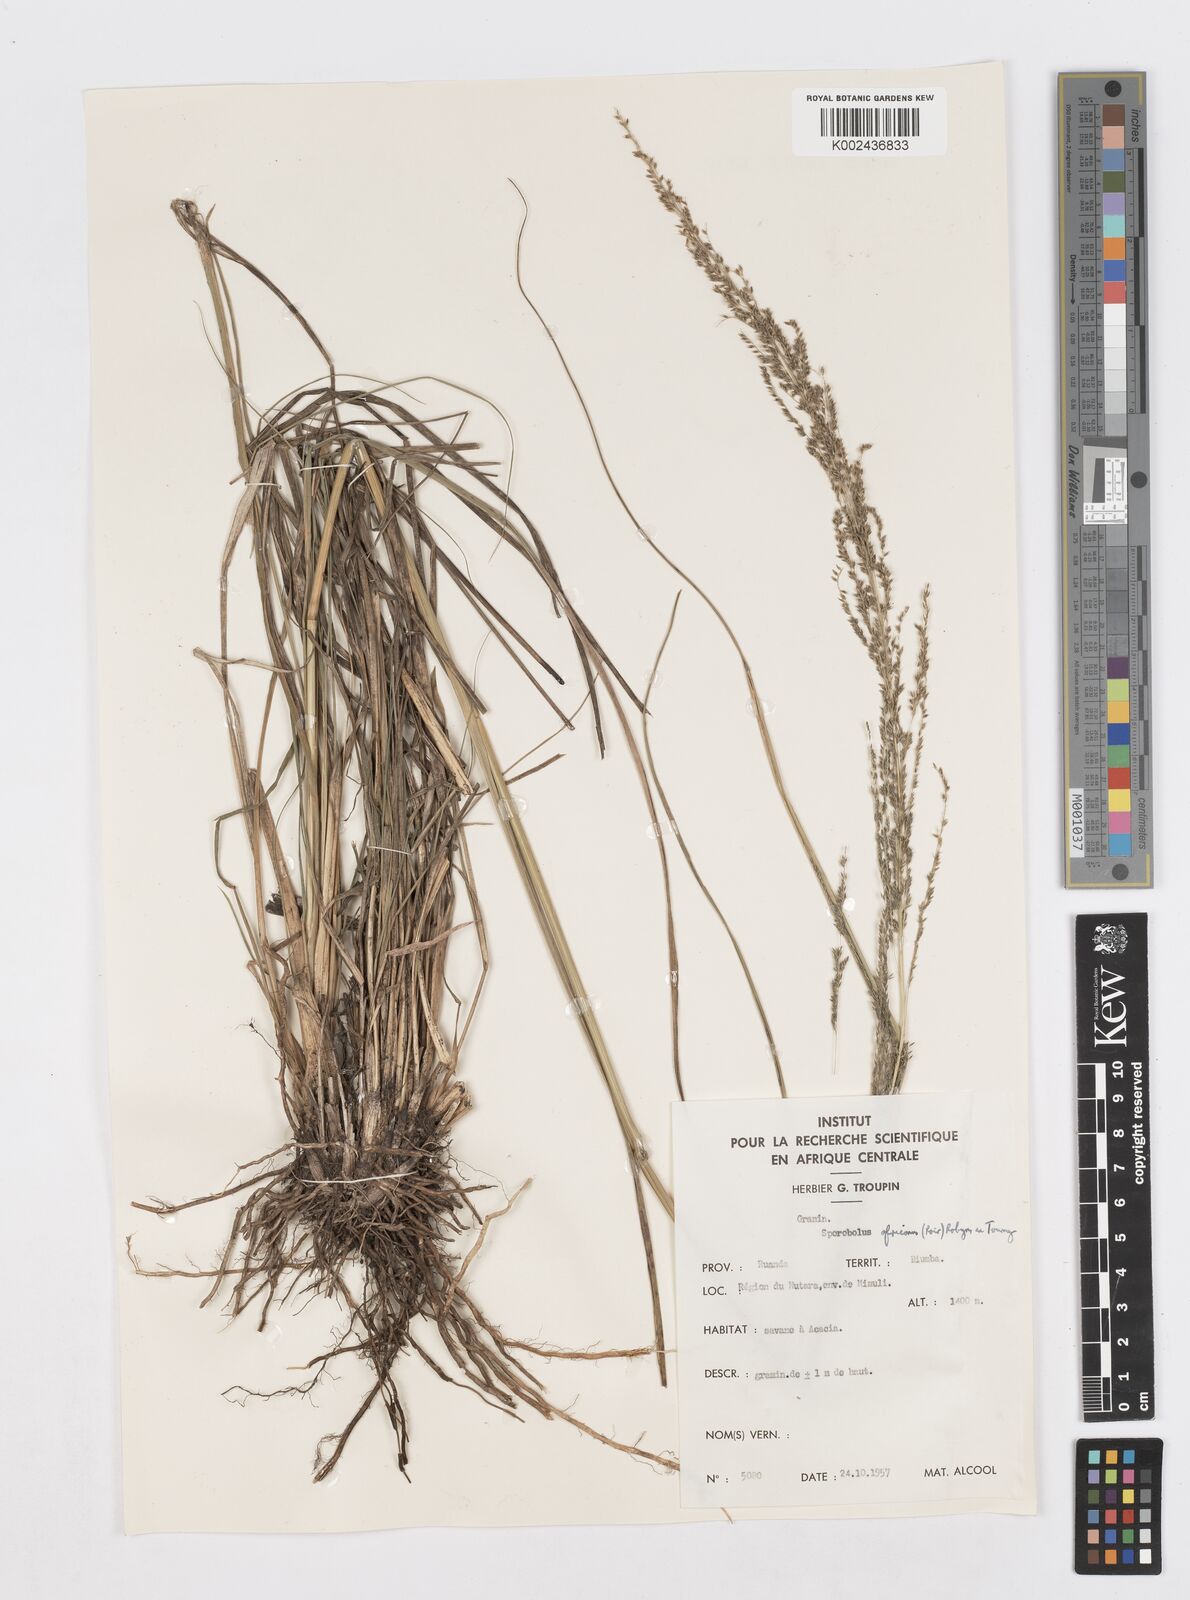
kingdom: Plantae
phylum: Tracheophyta
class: Liliopsida
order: Poales
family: Poaceae
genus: Sporobolus
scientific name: Sporobolus pyramidalis
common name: West indian dropseed
